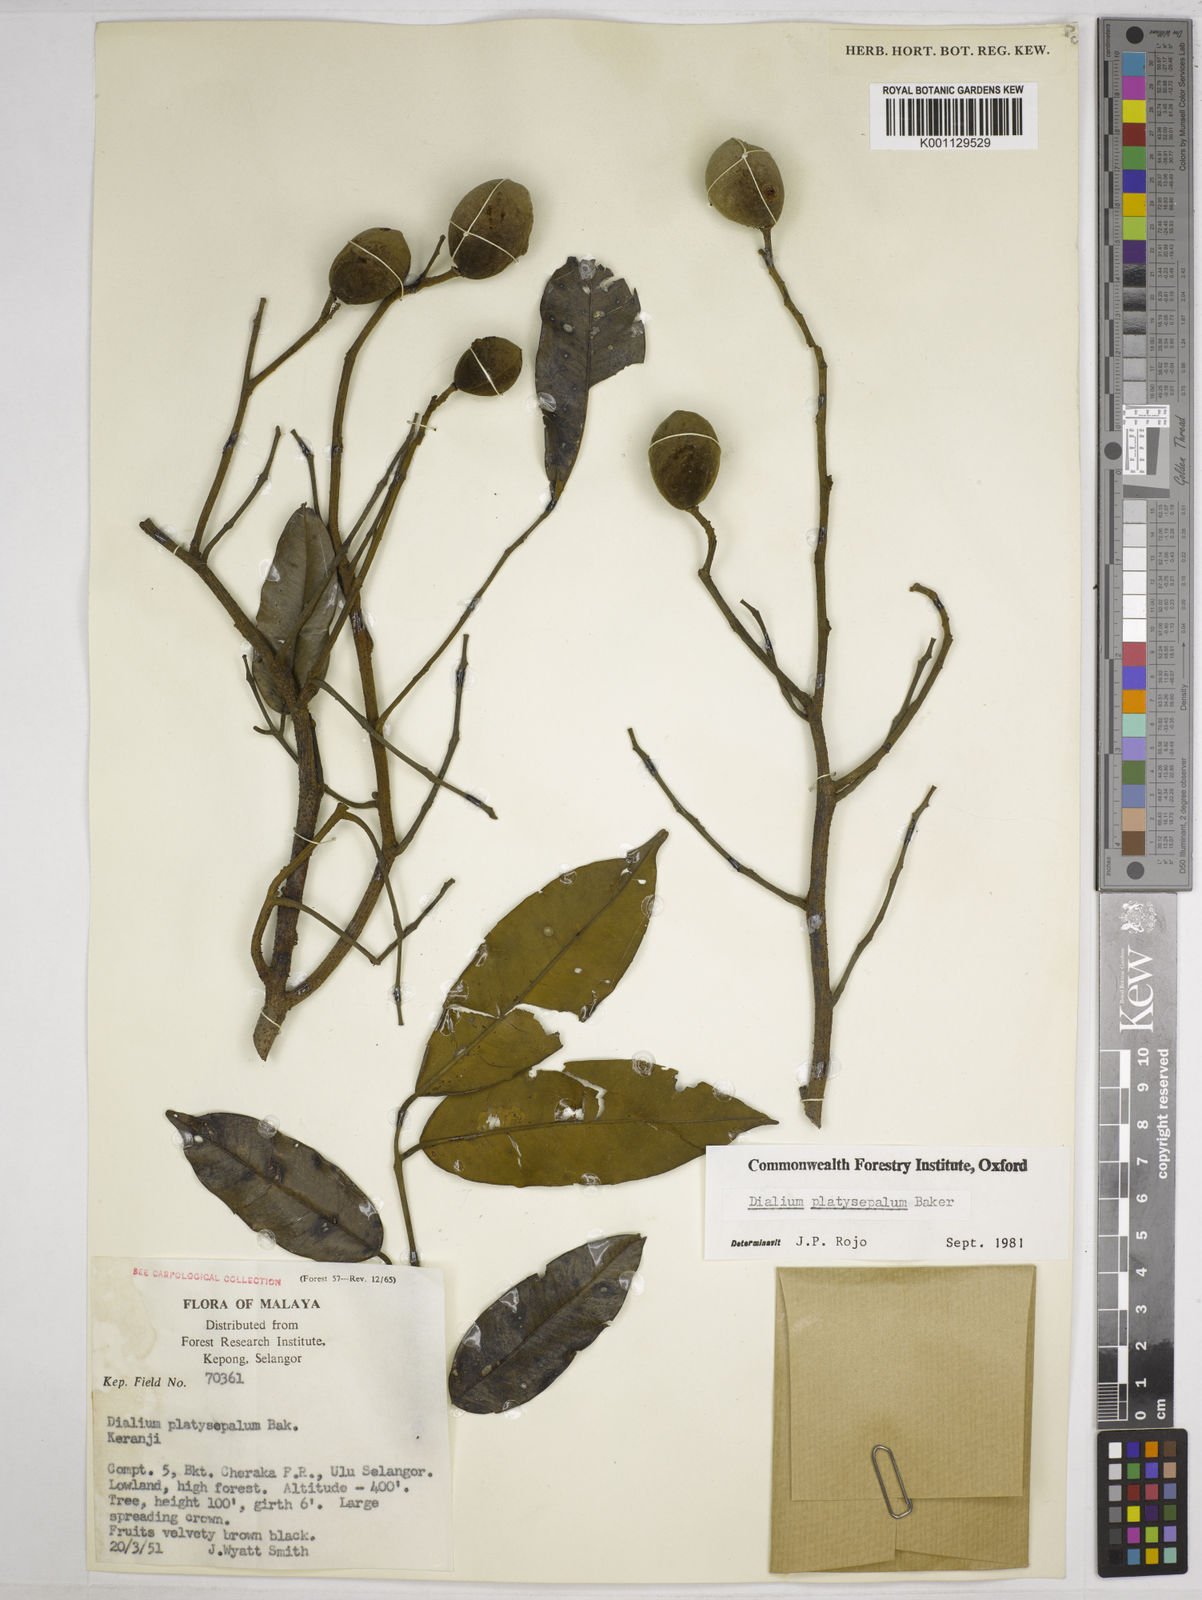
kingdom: Plantae
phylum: Tracheophyta
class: Magnoliopsida
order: Fabales
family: Fabaceae
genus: Dialium
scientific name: Dialium platysepalum
